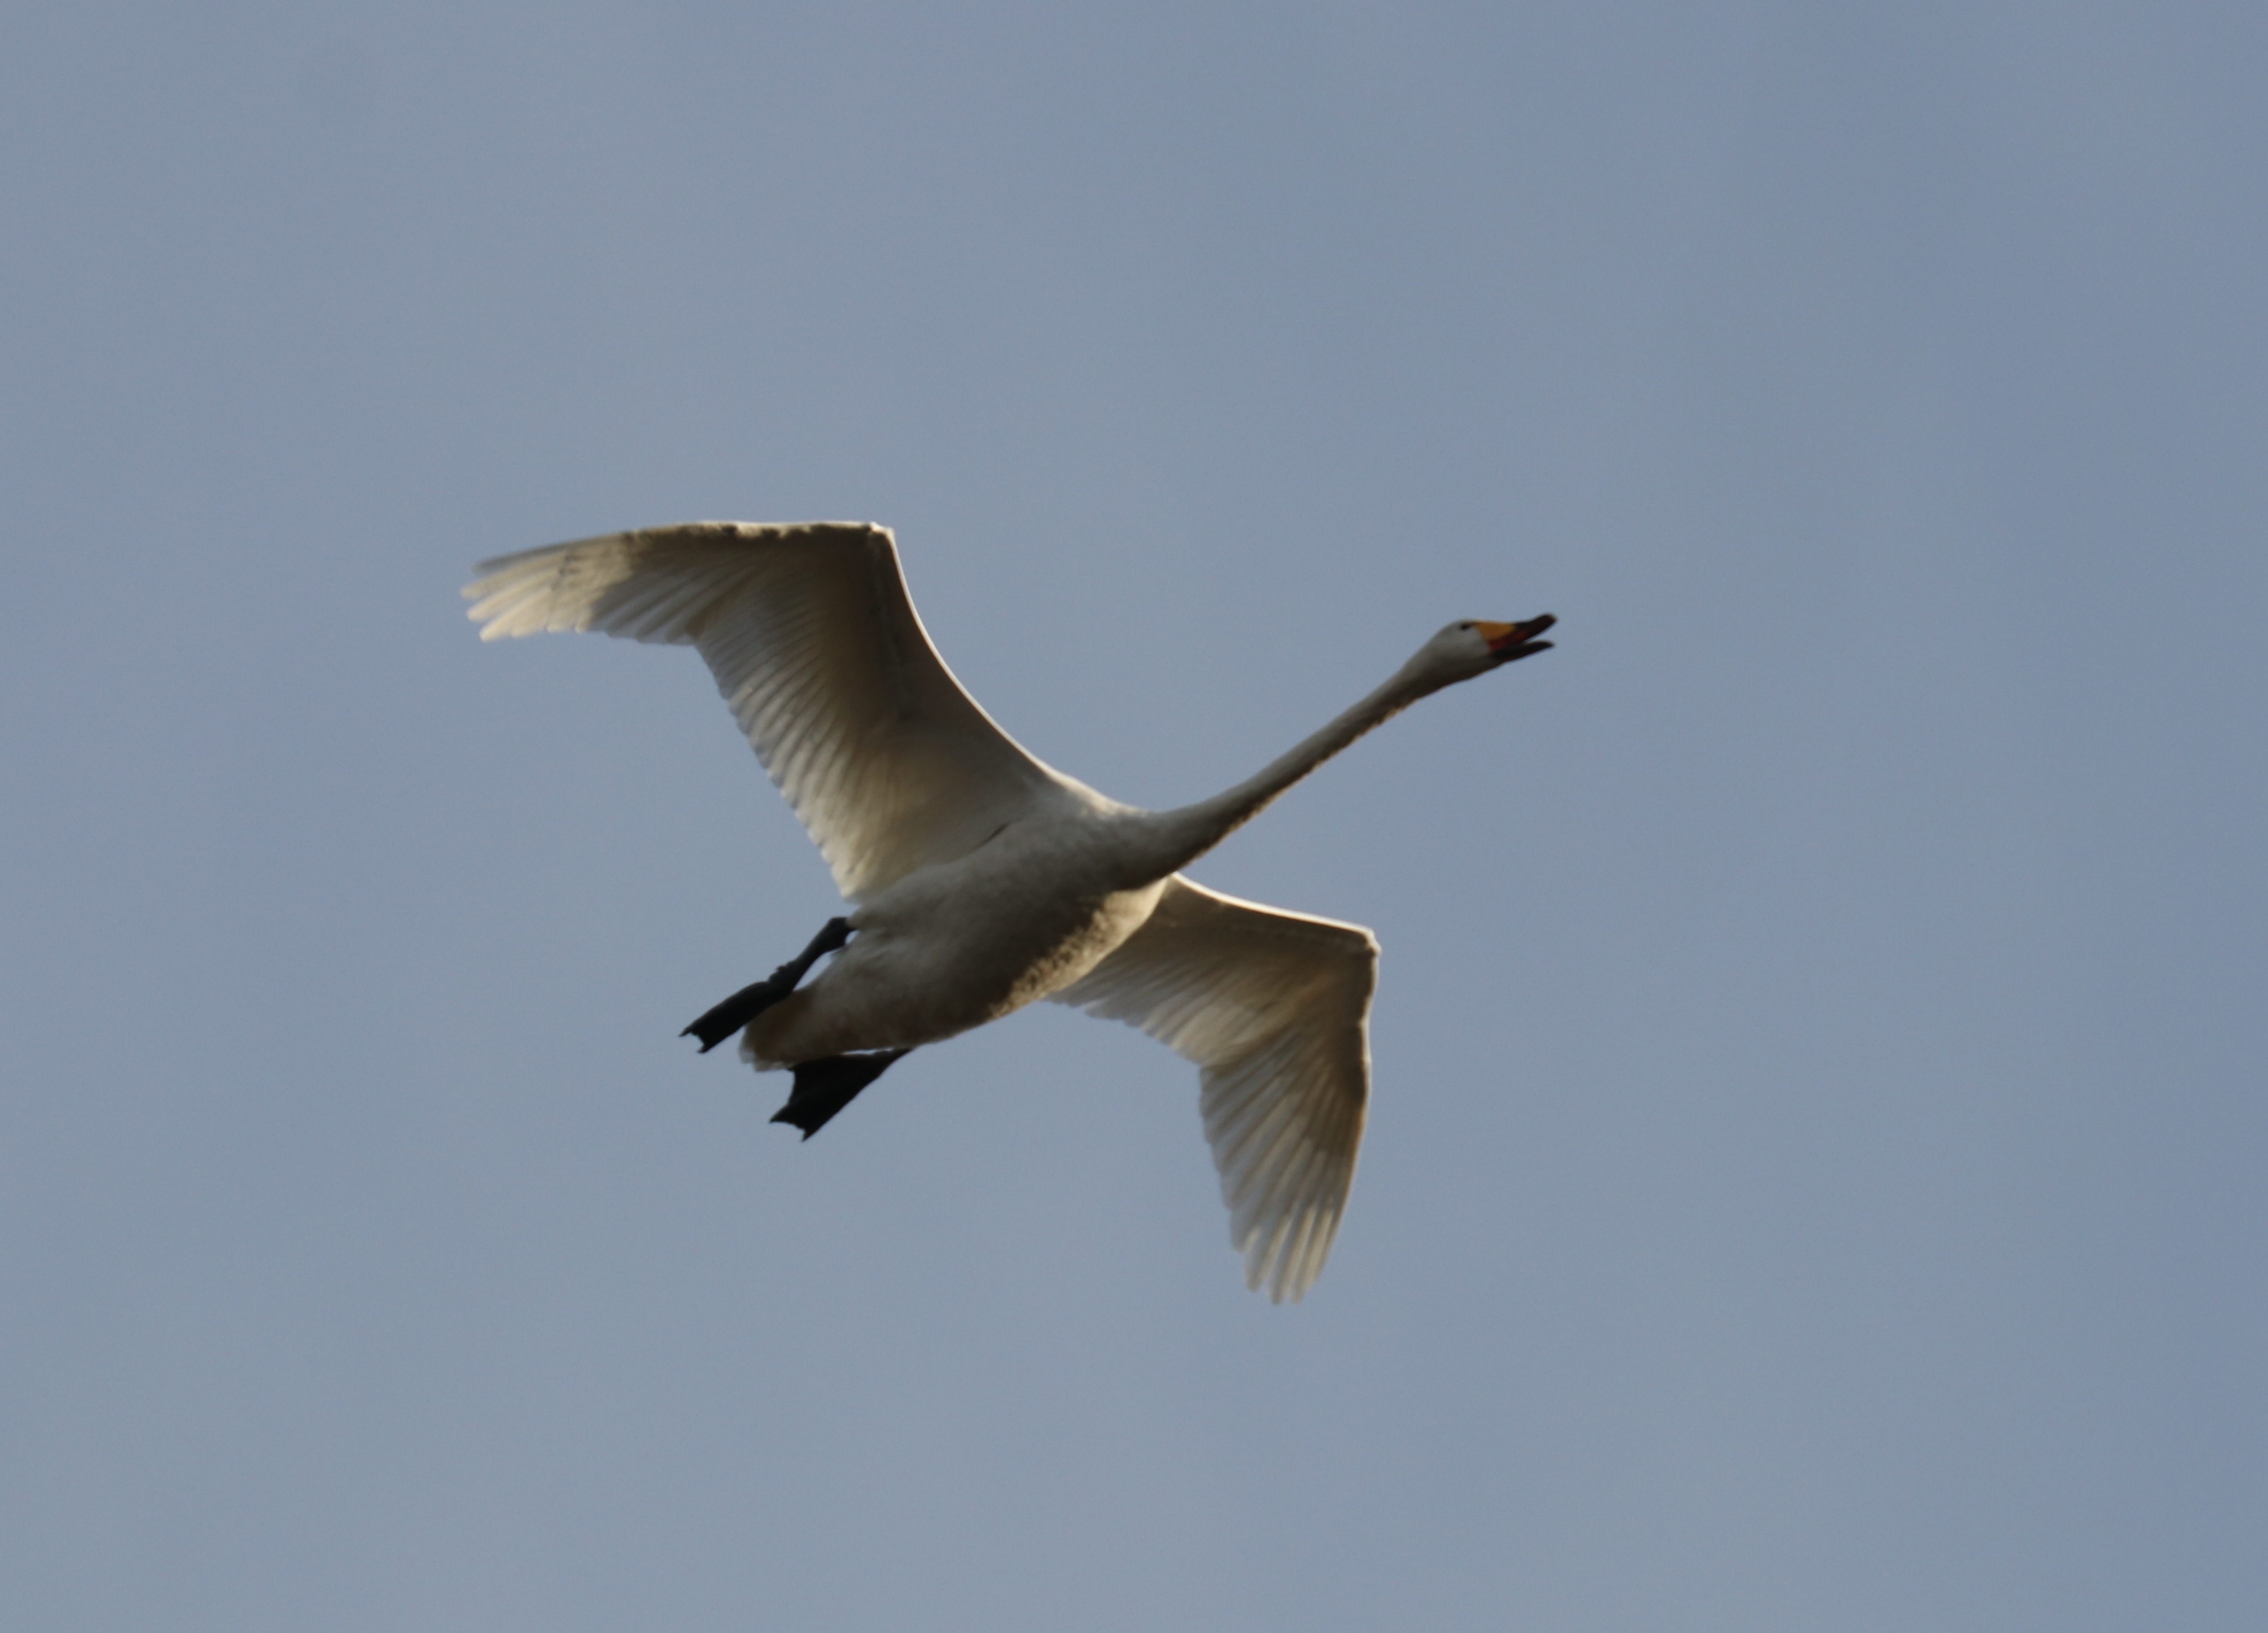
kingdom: Animalia
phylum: Chordata
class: Aves
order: Anseriformes
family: Anatidae
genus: Cygnus
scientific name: Cygnus cygnus
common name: Sangsvane
